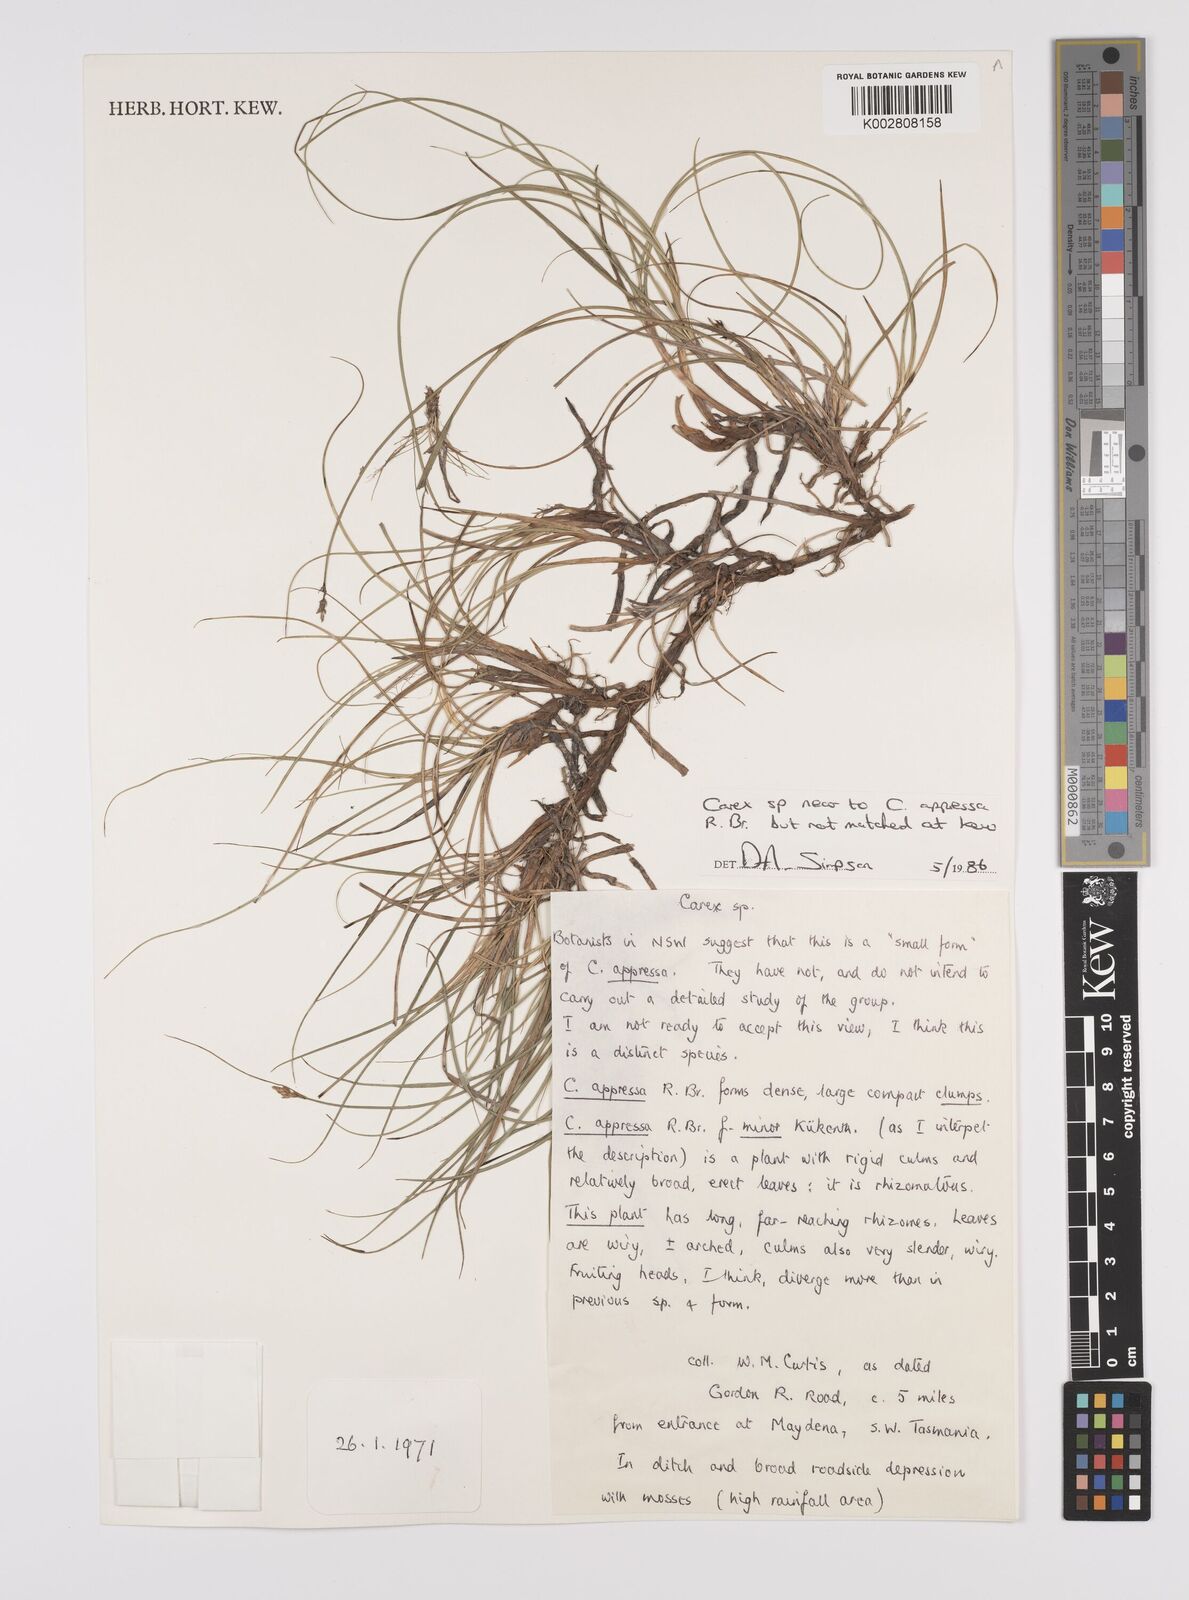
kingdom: Plantae
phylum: Tracheophyta
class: Liliopsida
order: Poales
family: Cyperaceae
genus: Carex
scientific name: Carex diandra
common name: Lesser tussock-sedge
